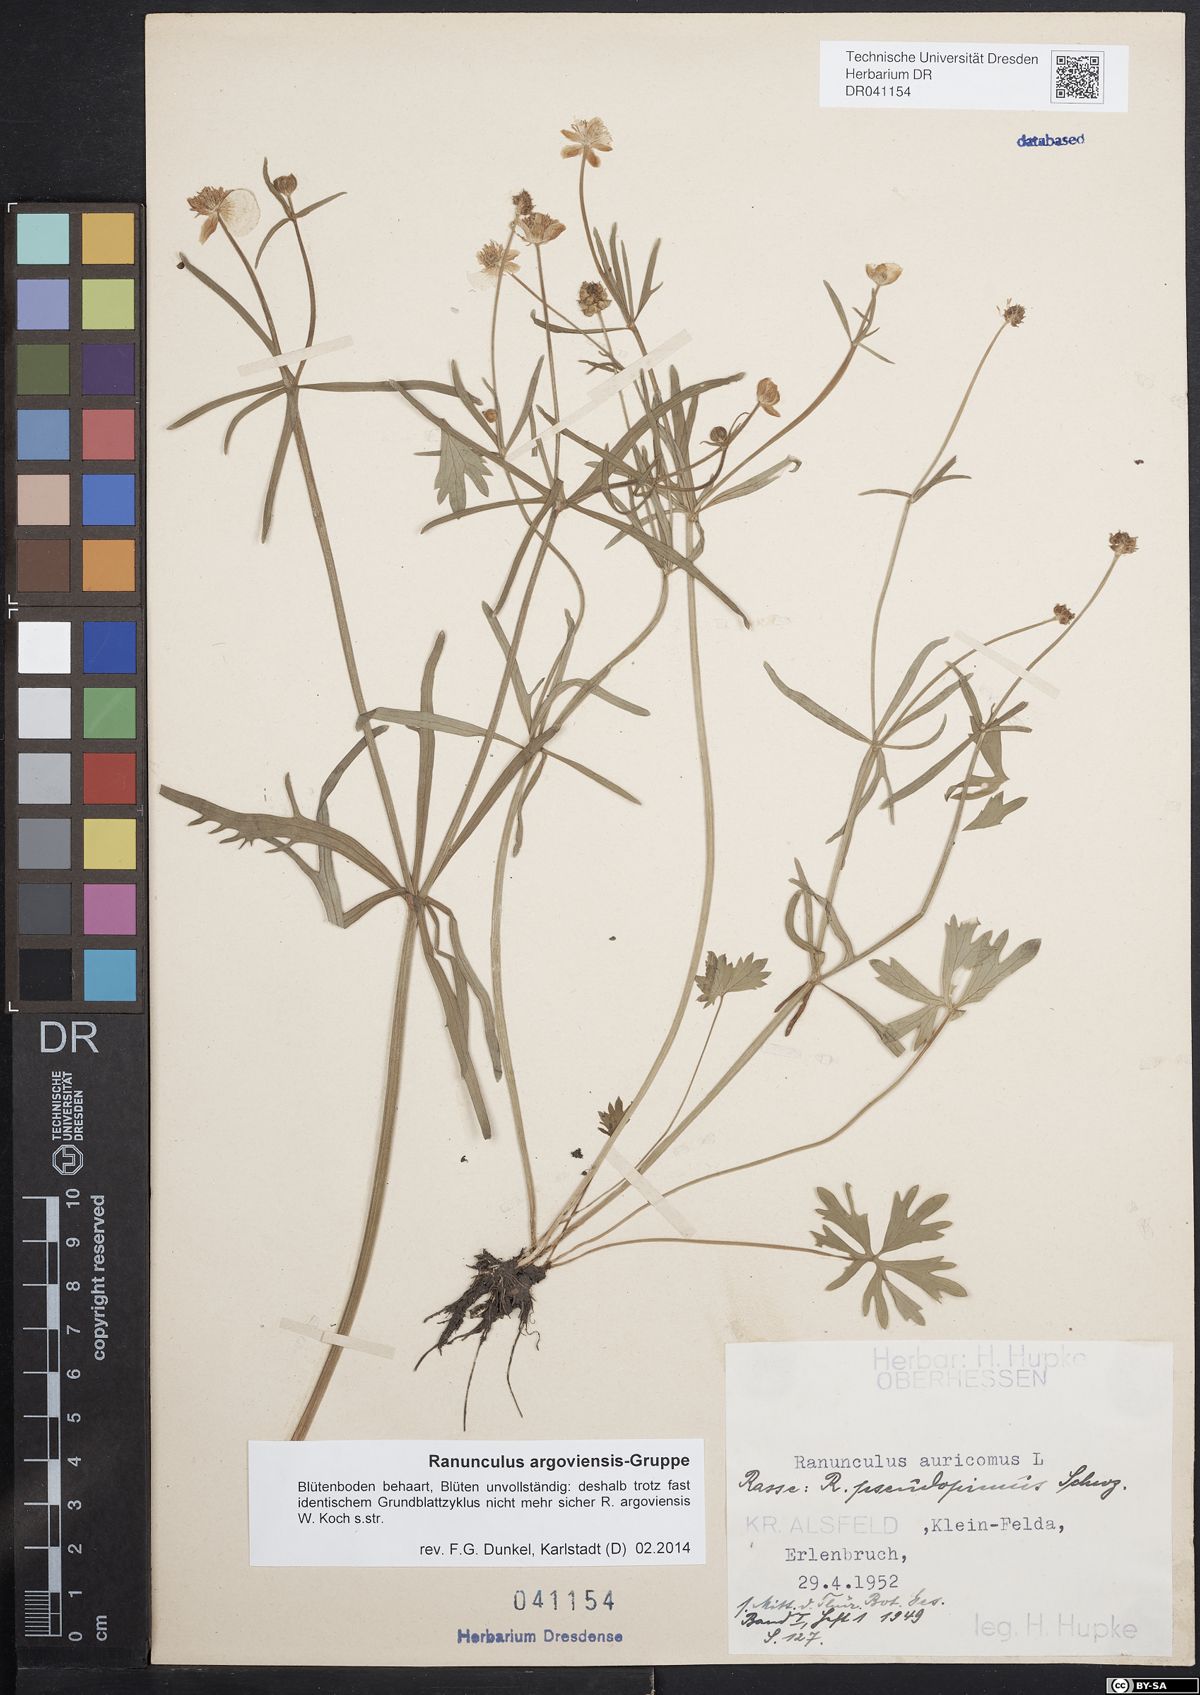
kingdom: Plantae
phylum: Tracheophyta
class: Magnoliopsida
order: Ranunculales
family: Ranunculaceae
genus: Ranunculus
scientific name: Ranunculus argoviensis
